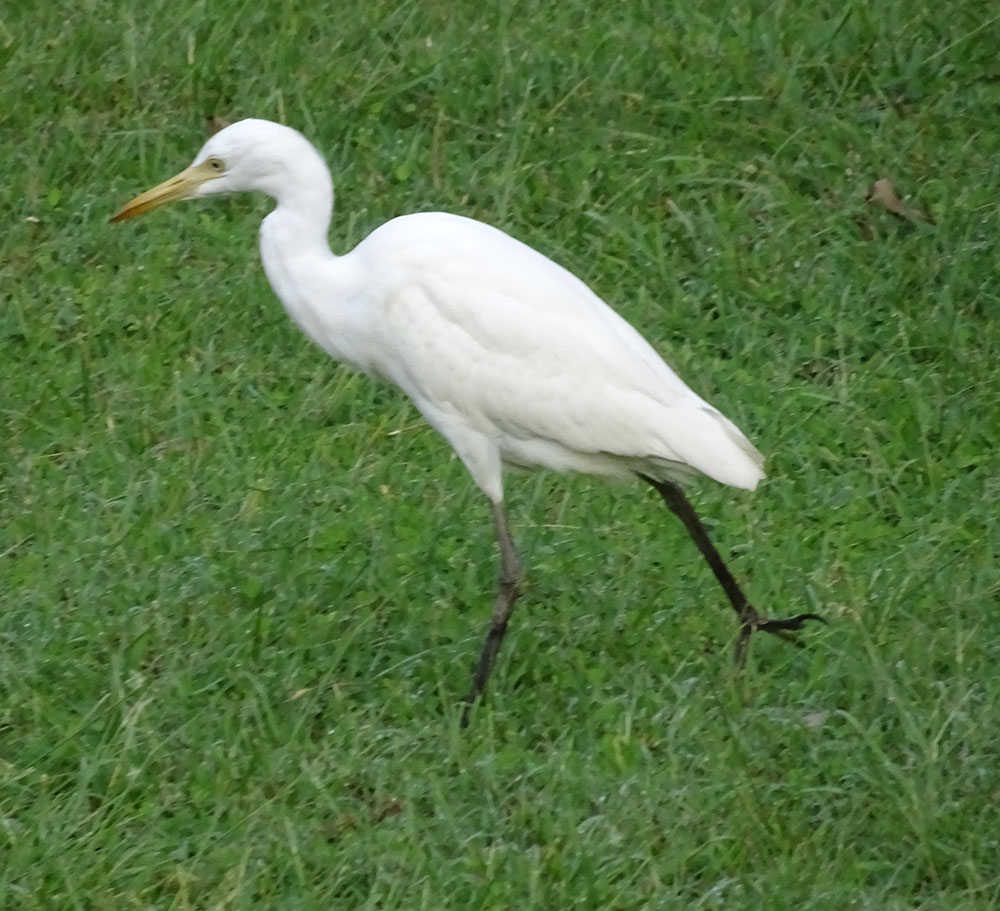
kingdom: Animalia
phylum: Chordata
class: Aves
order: Pelecaniformes
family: Ardeidae
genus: Egretta
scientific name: Egretta intermedia
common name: Intermediate egret
